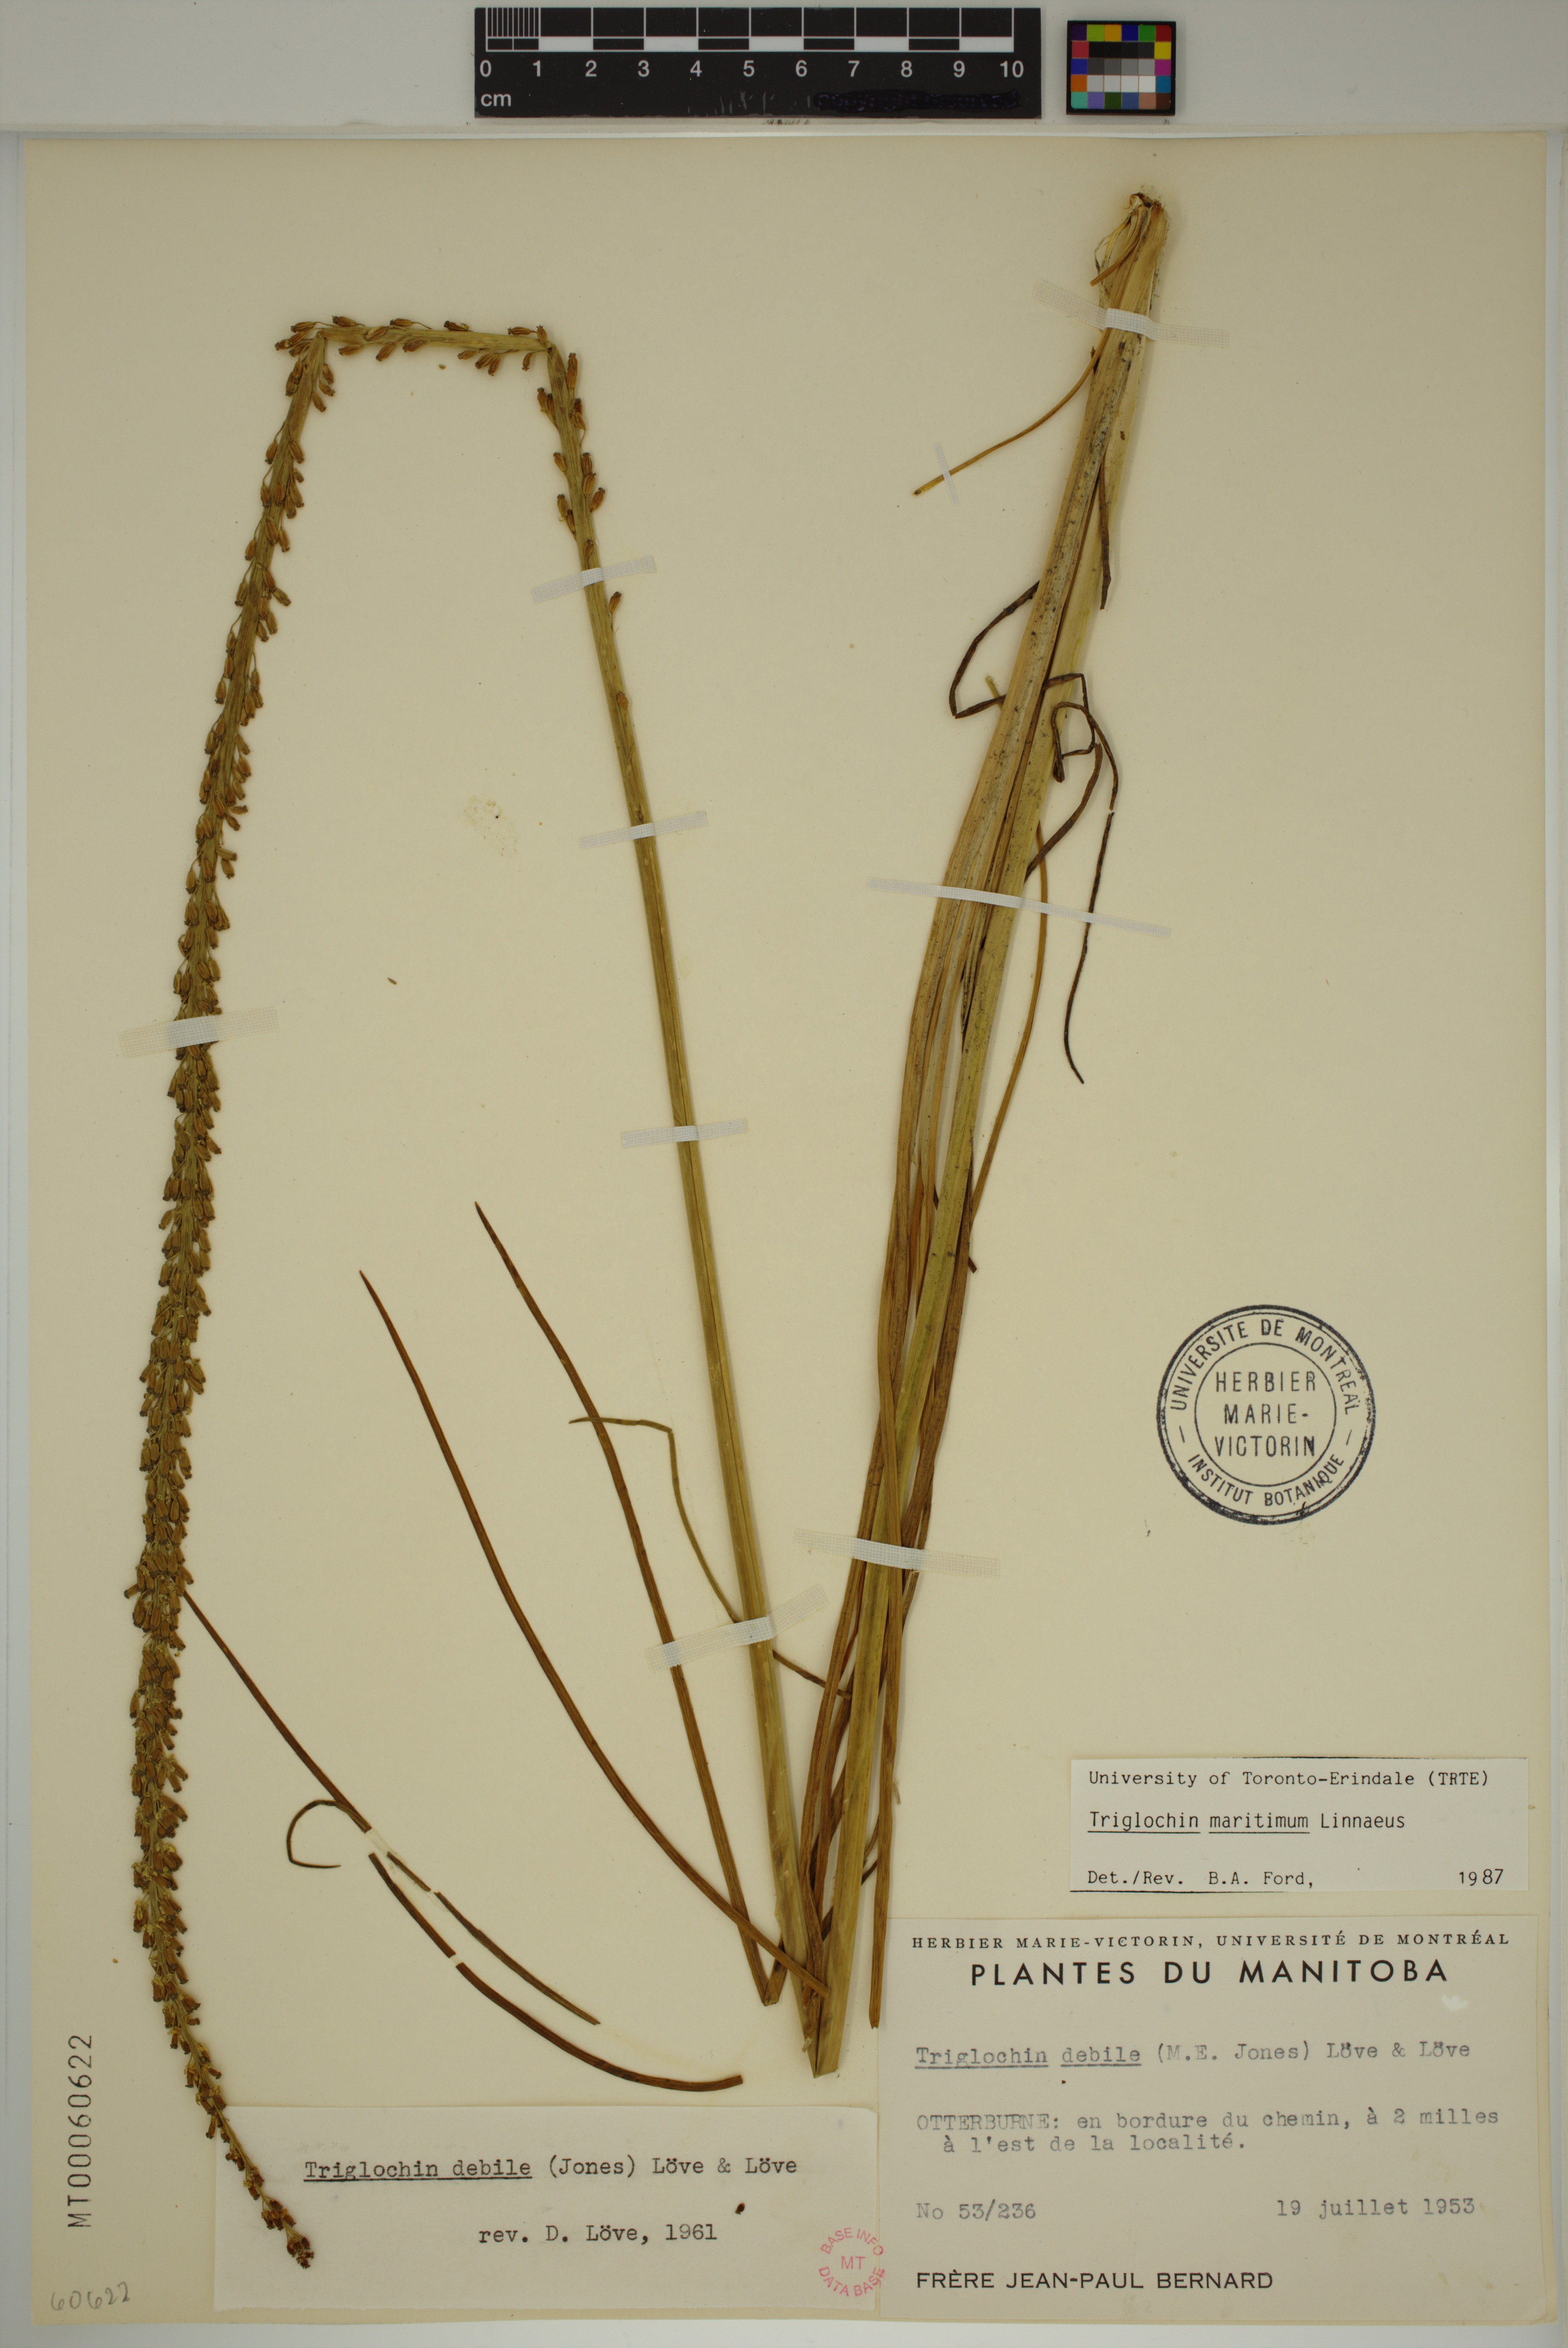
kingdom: Plantae
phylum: Tracheophyta
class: Liliopsida
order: Alismatales
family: Juncaginaceae
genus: Triglochin
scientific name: Triglochin maritima
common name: Sea arrowgrass
